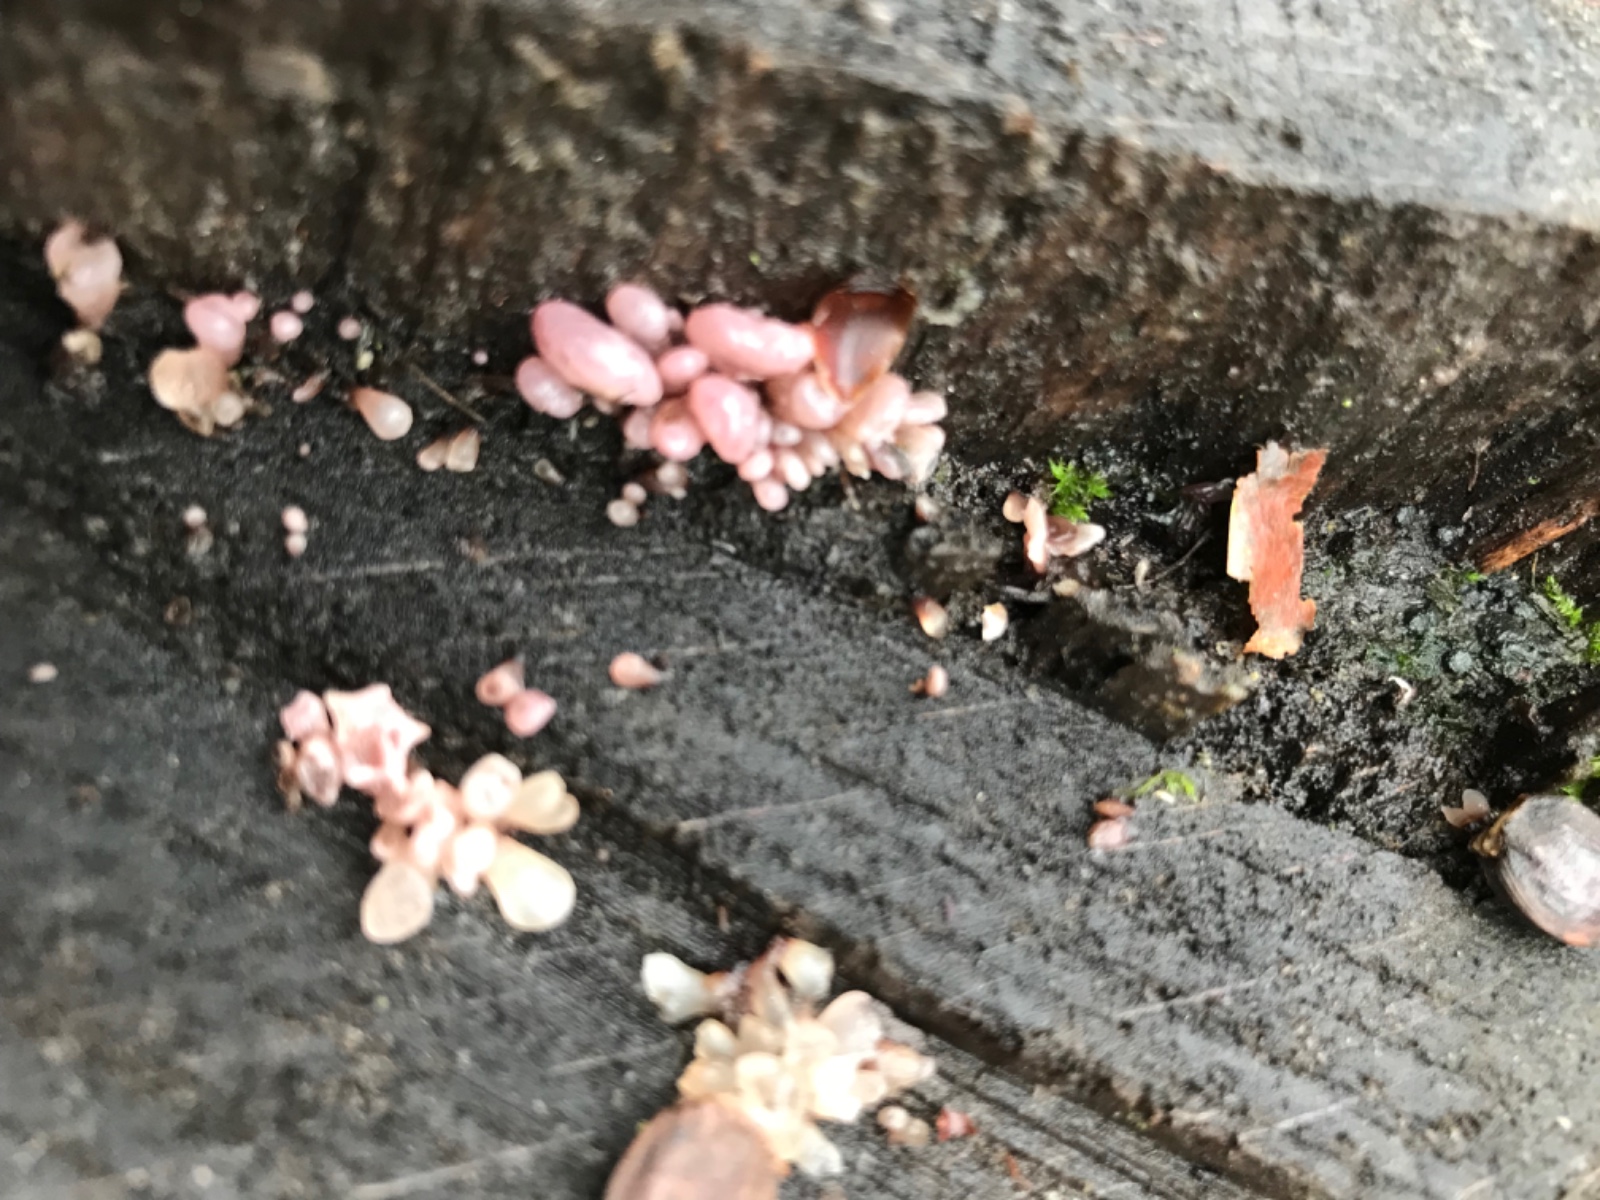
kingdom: Fungi
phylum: Ascomycota
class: Leotiomycetes
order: Helotiales
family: Gelatinodiscaceae
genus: Ascocoryne
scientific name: Ascocoryne sarcoides
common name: rødlilla sejskive
